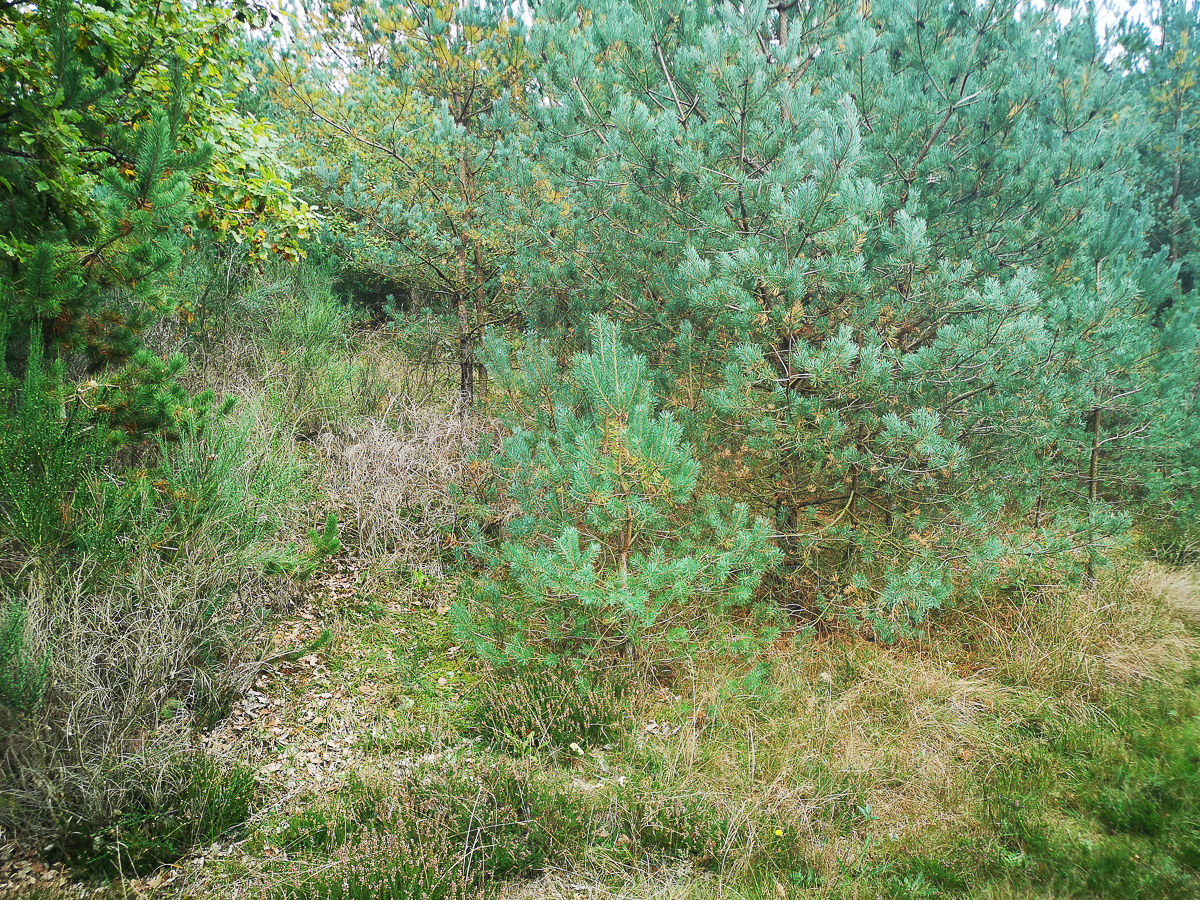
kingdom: Fungi
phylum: Basidiomycota
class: Agaricomycetes
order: Boletales
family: Suillaceae
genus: Suillus
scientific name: Suillus bovinus
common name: grovporet slimrørhat
